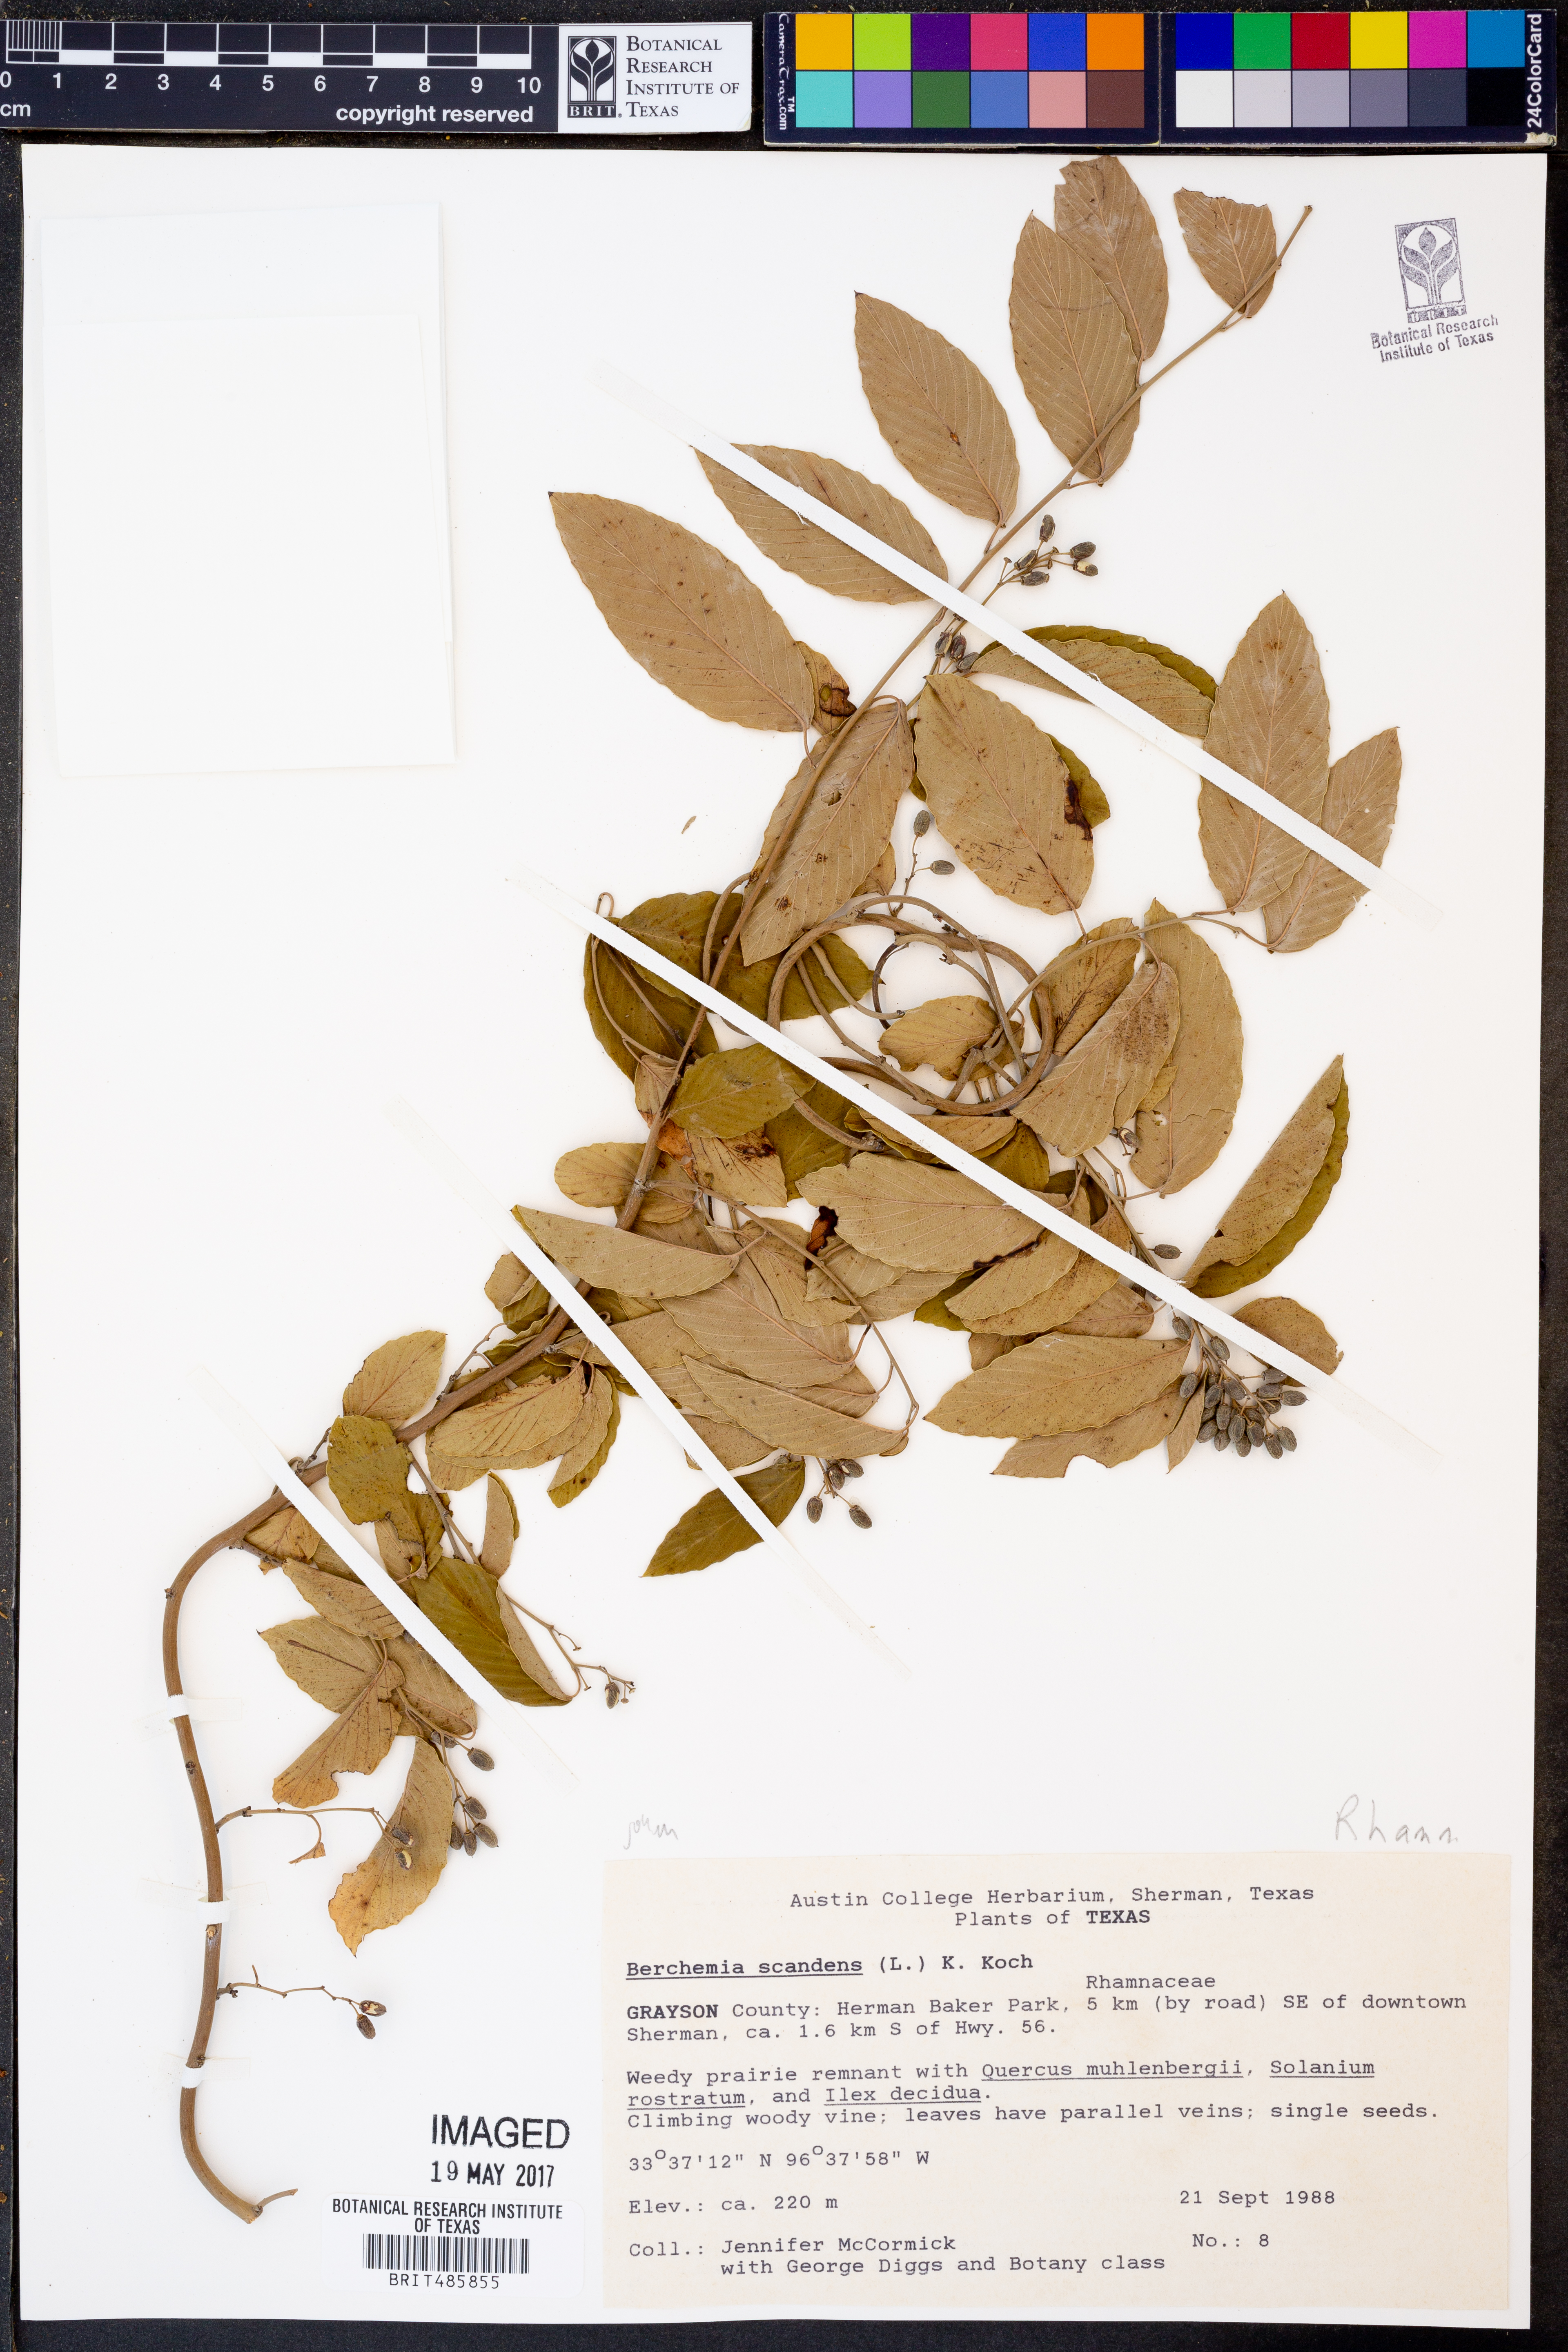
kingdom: Plantae
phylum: Tracheophyta
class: Magnoliopsida
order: Rosales
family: Rhamnaceae
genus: Berchemia
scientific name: Berchemia scandens
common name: Supplejack
